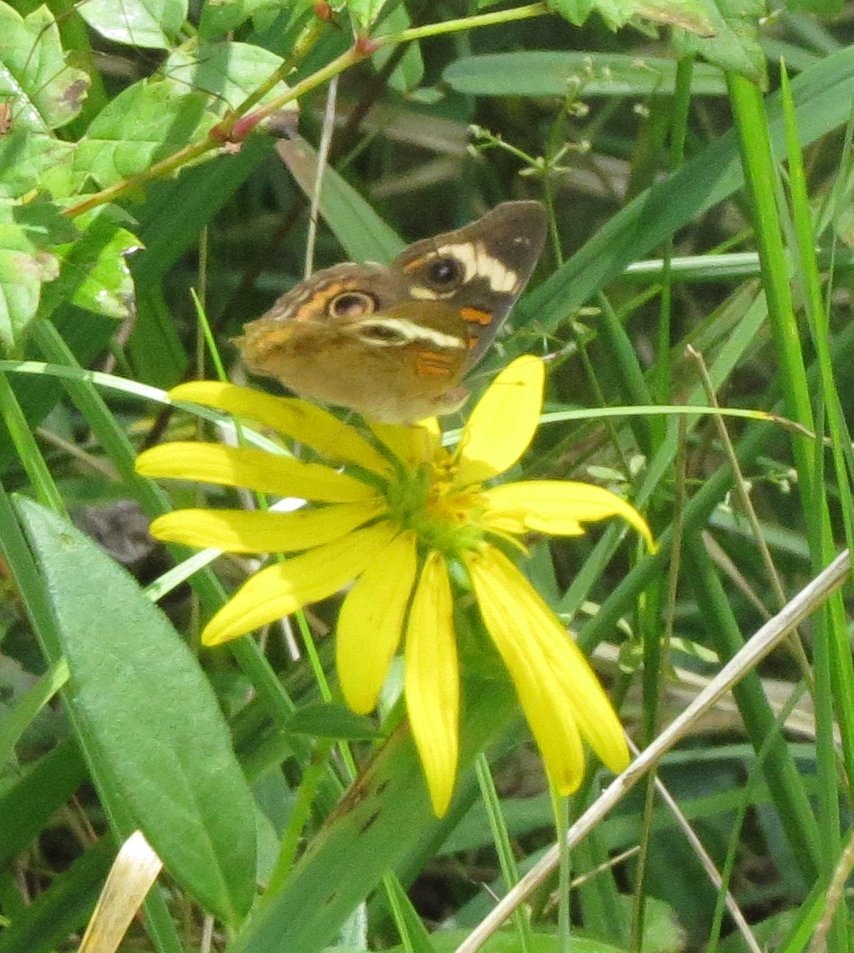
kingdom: Animalia
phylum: Arthropoda
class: Insecta
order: Lepidoptera
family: Nymphalidae
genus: Junonia
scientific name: Junonia coenia
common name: Common Buckeye
